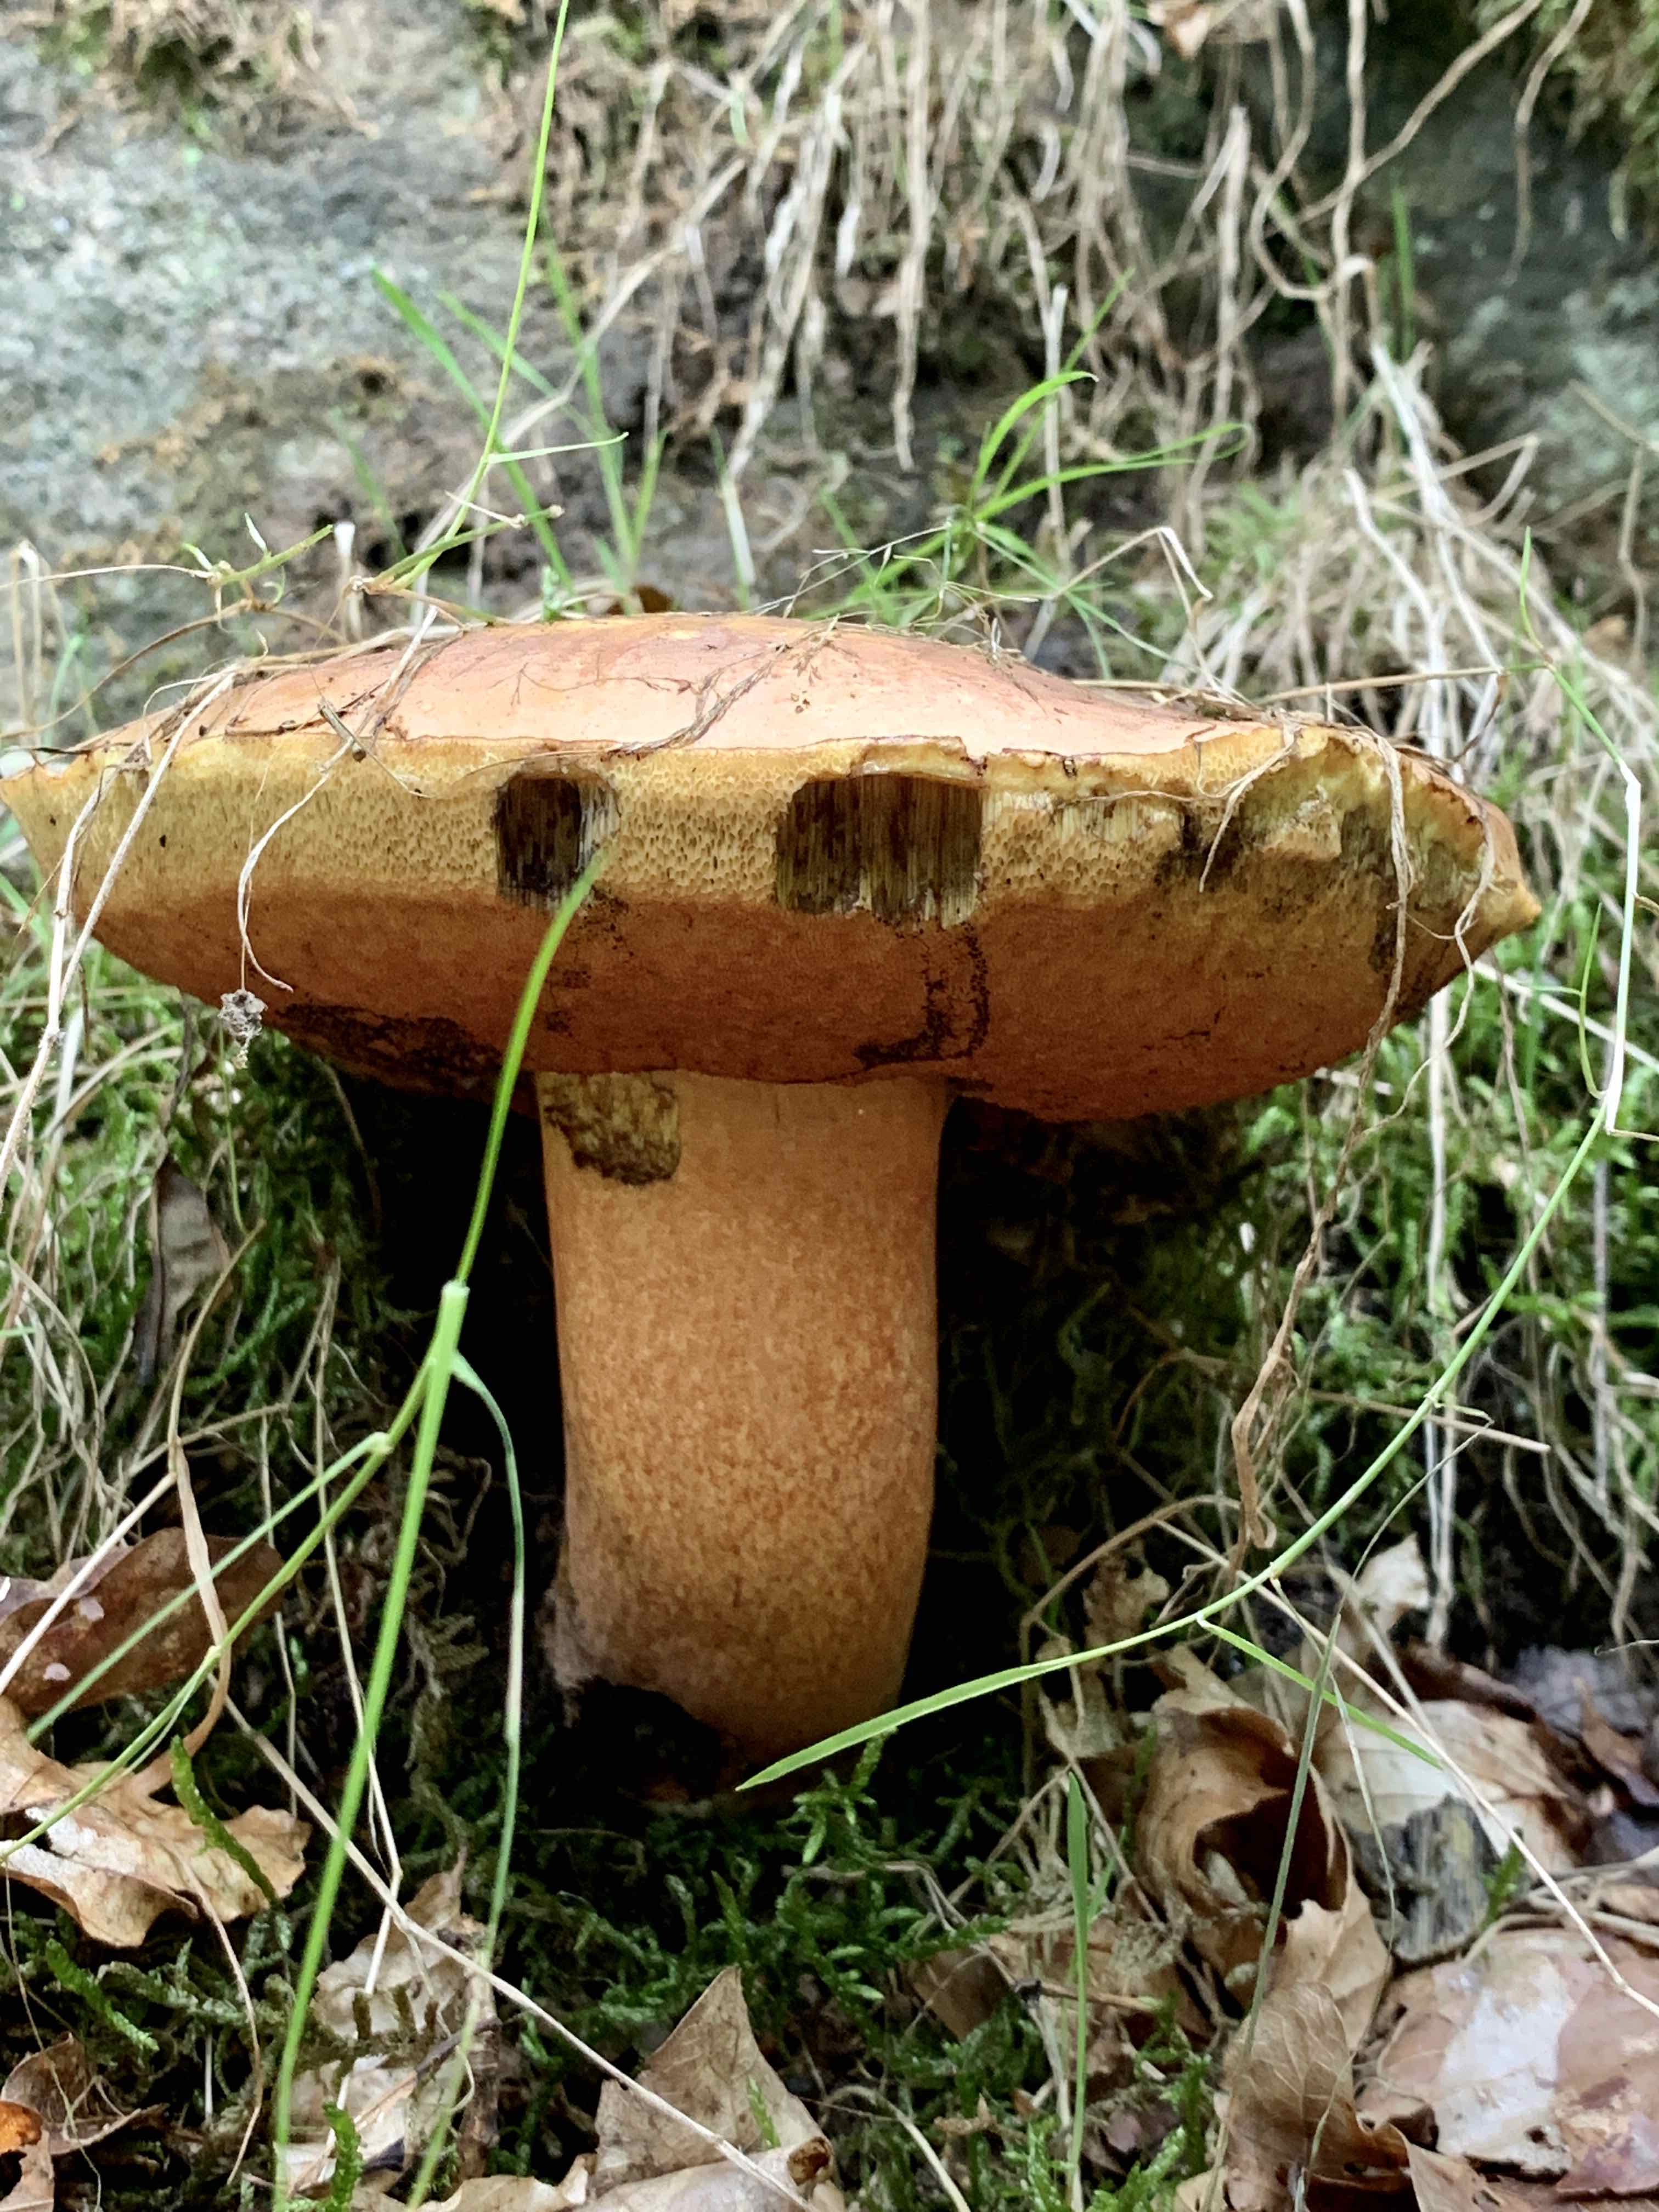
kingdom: Fungi
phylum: Basidiomycota
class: Agaricomycetes
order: Boletales
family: Boletaceae
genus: Neoboletus
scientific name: Neoboletus erythropus
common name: punktstokket indigorørhat
